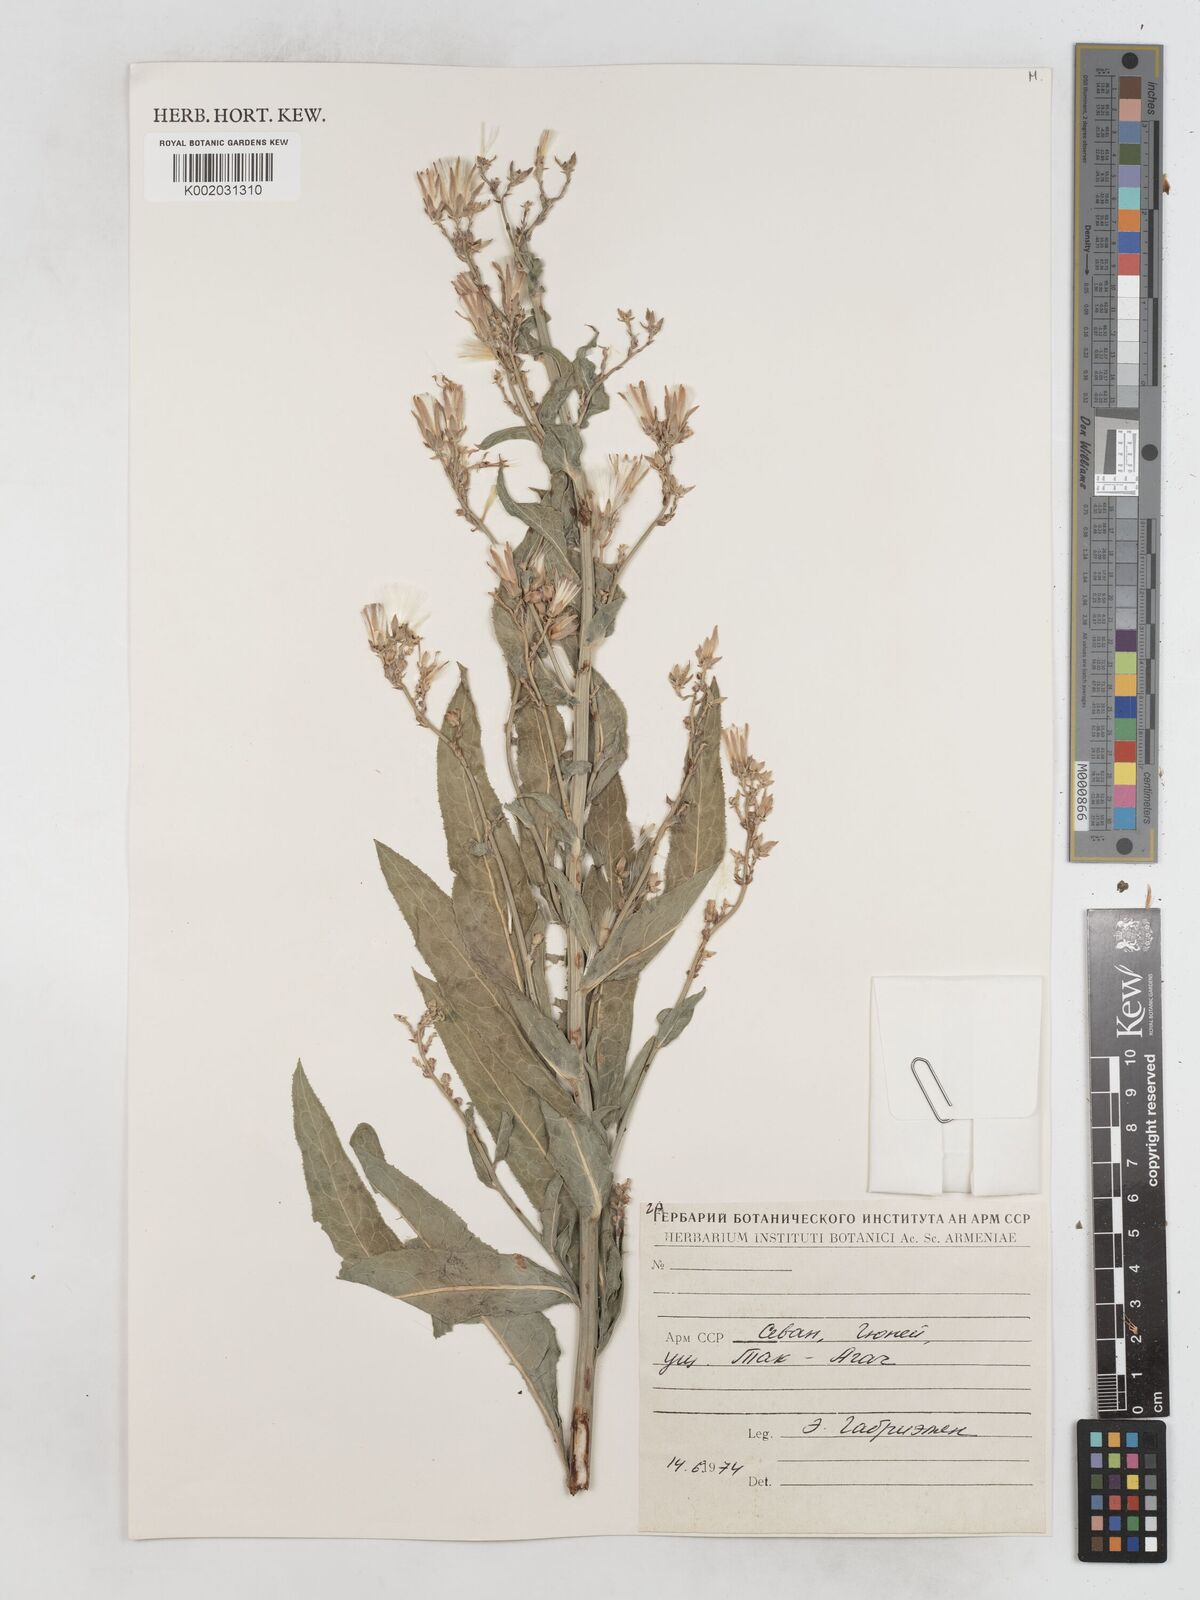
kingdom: Plantae
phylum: Tracheophyta
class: Magnoliopsida
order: Asterales
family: Asteraceae
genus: Lactuca
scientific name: Lactuca tatarica
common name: Blue lettuce
